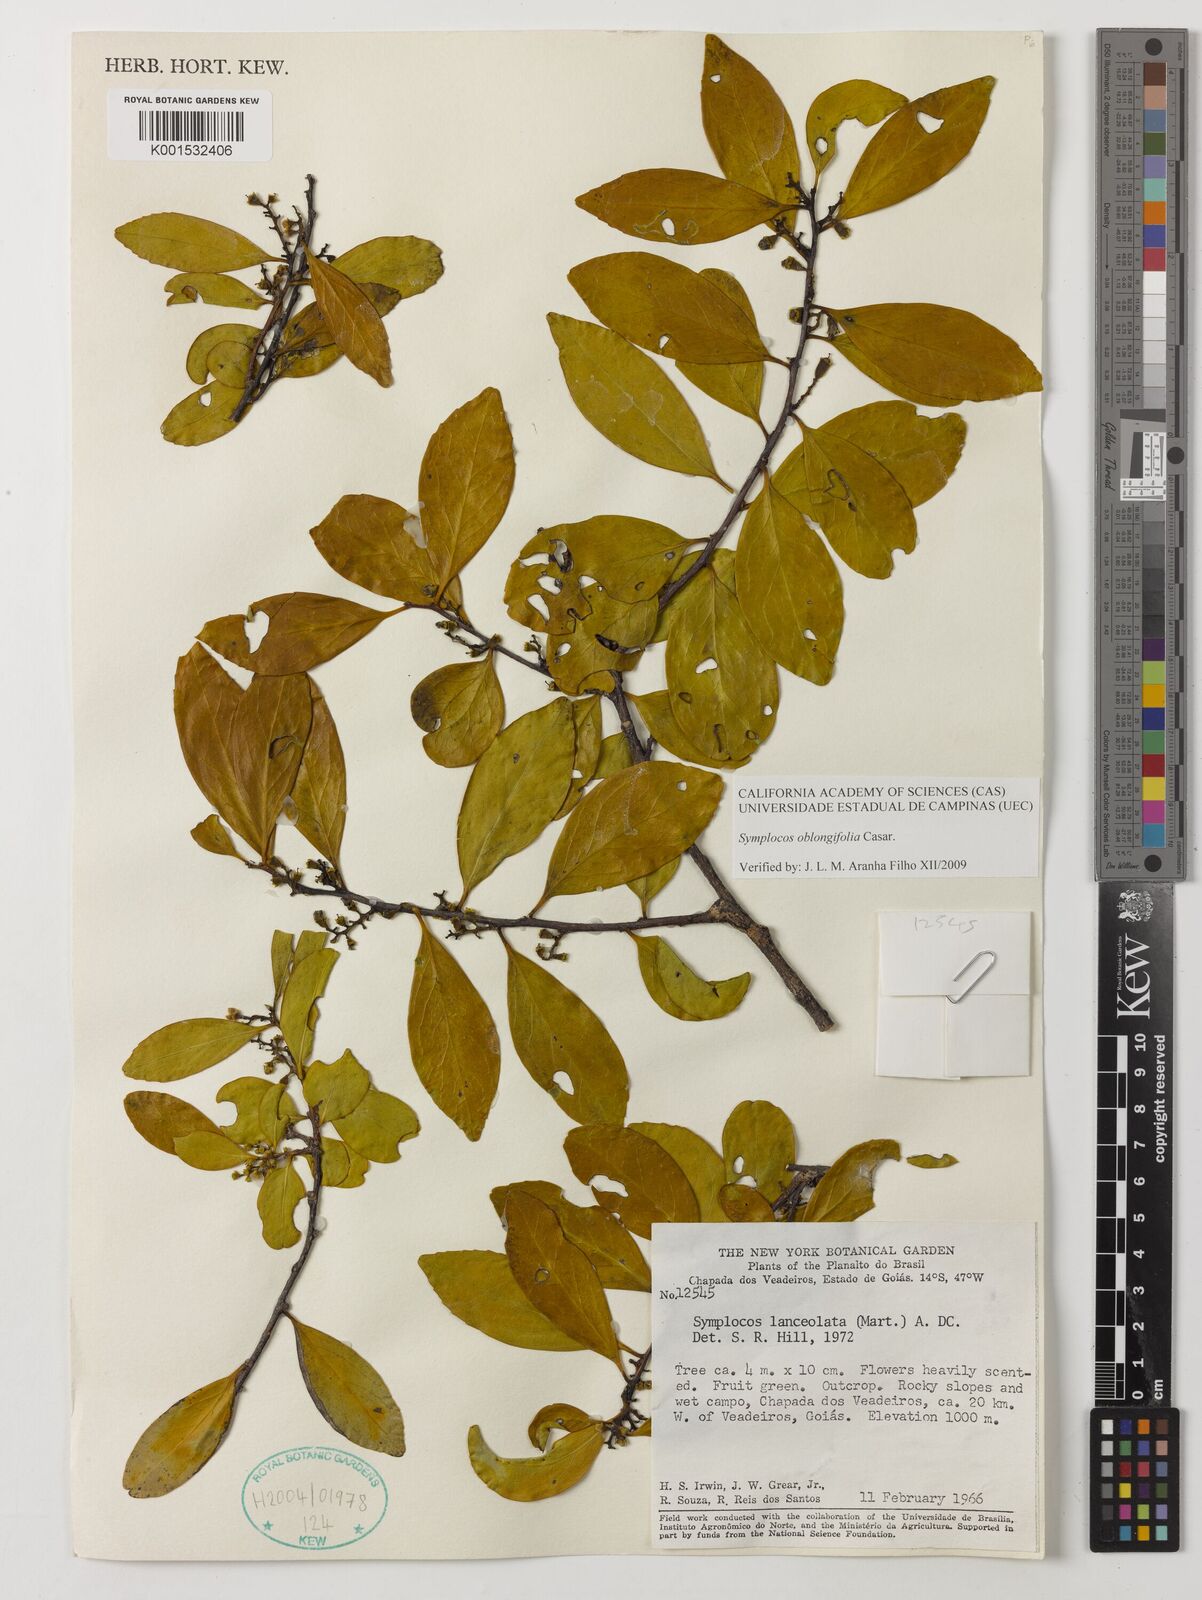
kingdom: Plantae
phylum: Tracheophyta
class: Magnoliopsida
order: Ericales
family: Symplocaceae
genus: Symplocos
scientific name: Symplocos oblongifolia
